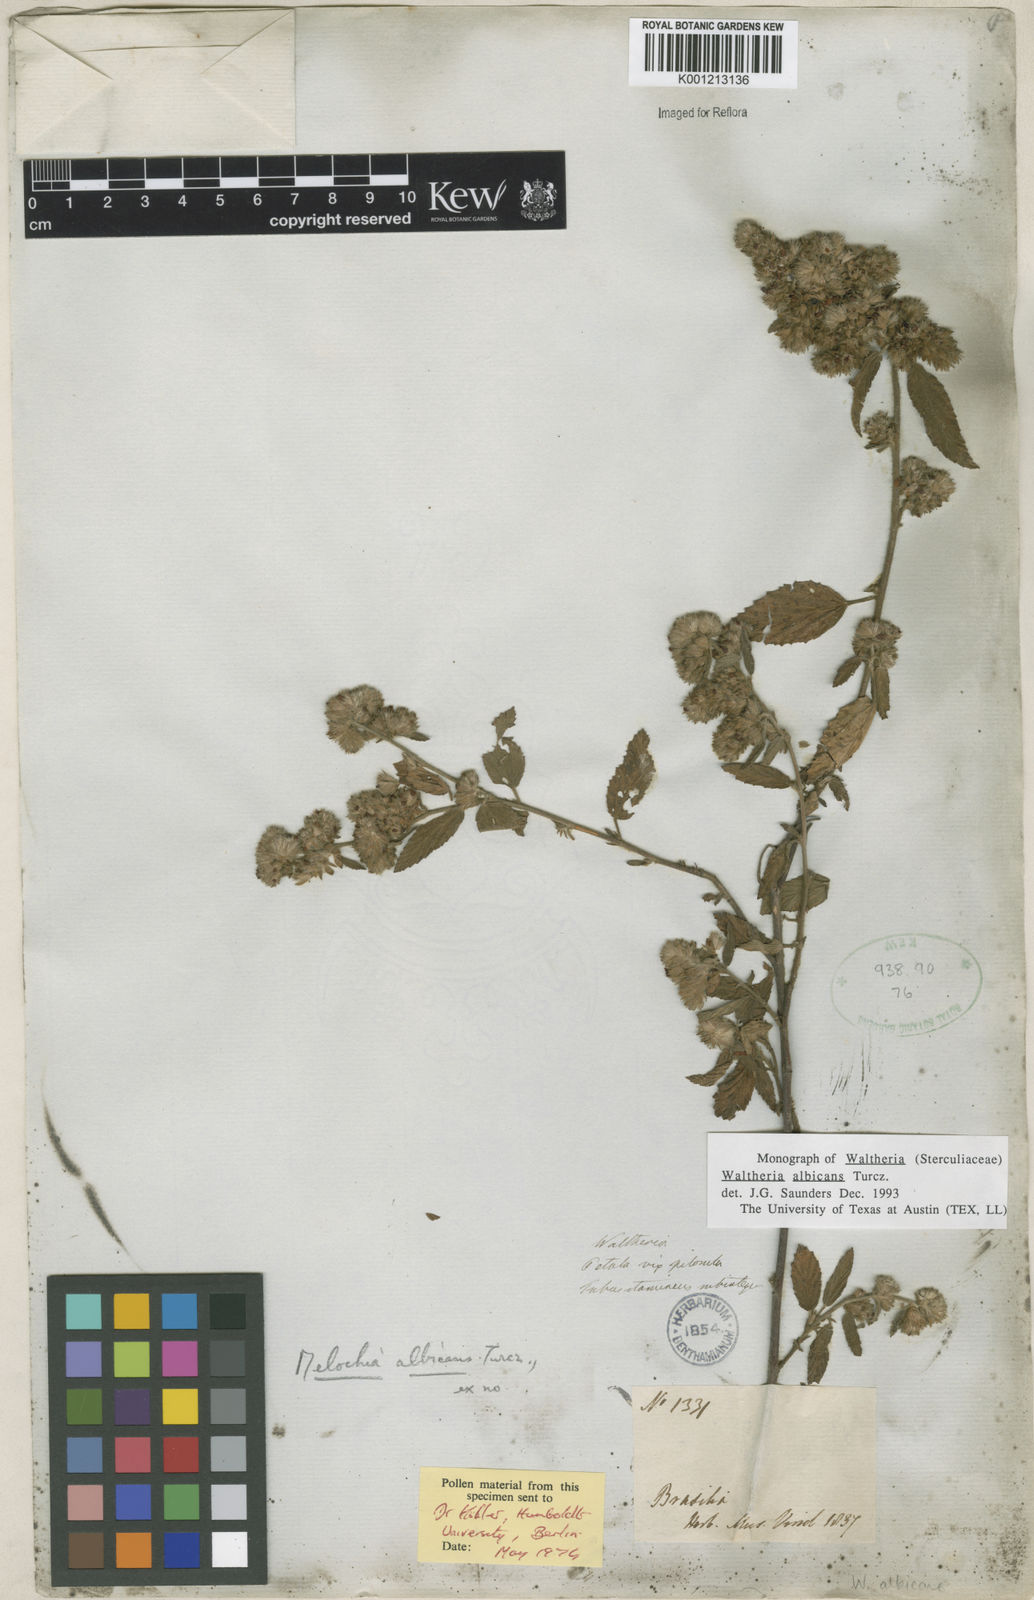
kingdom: Plantae
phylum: Tracheophyta
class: Magnoliopsida
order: Malvales
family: Malvaceae
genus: Waltheria
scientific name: Waltheria albicans
